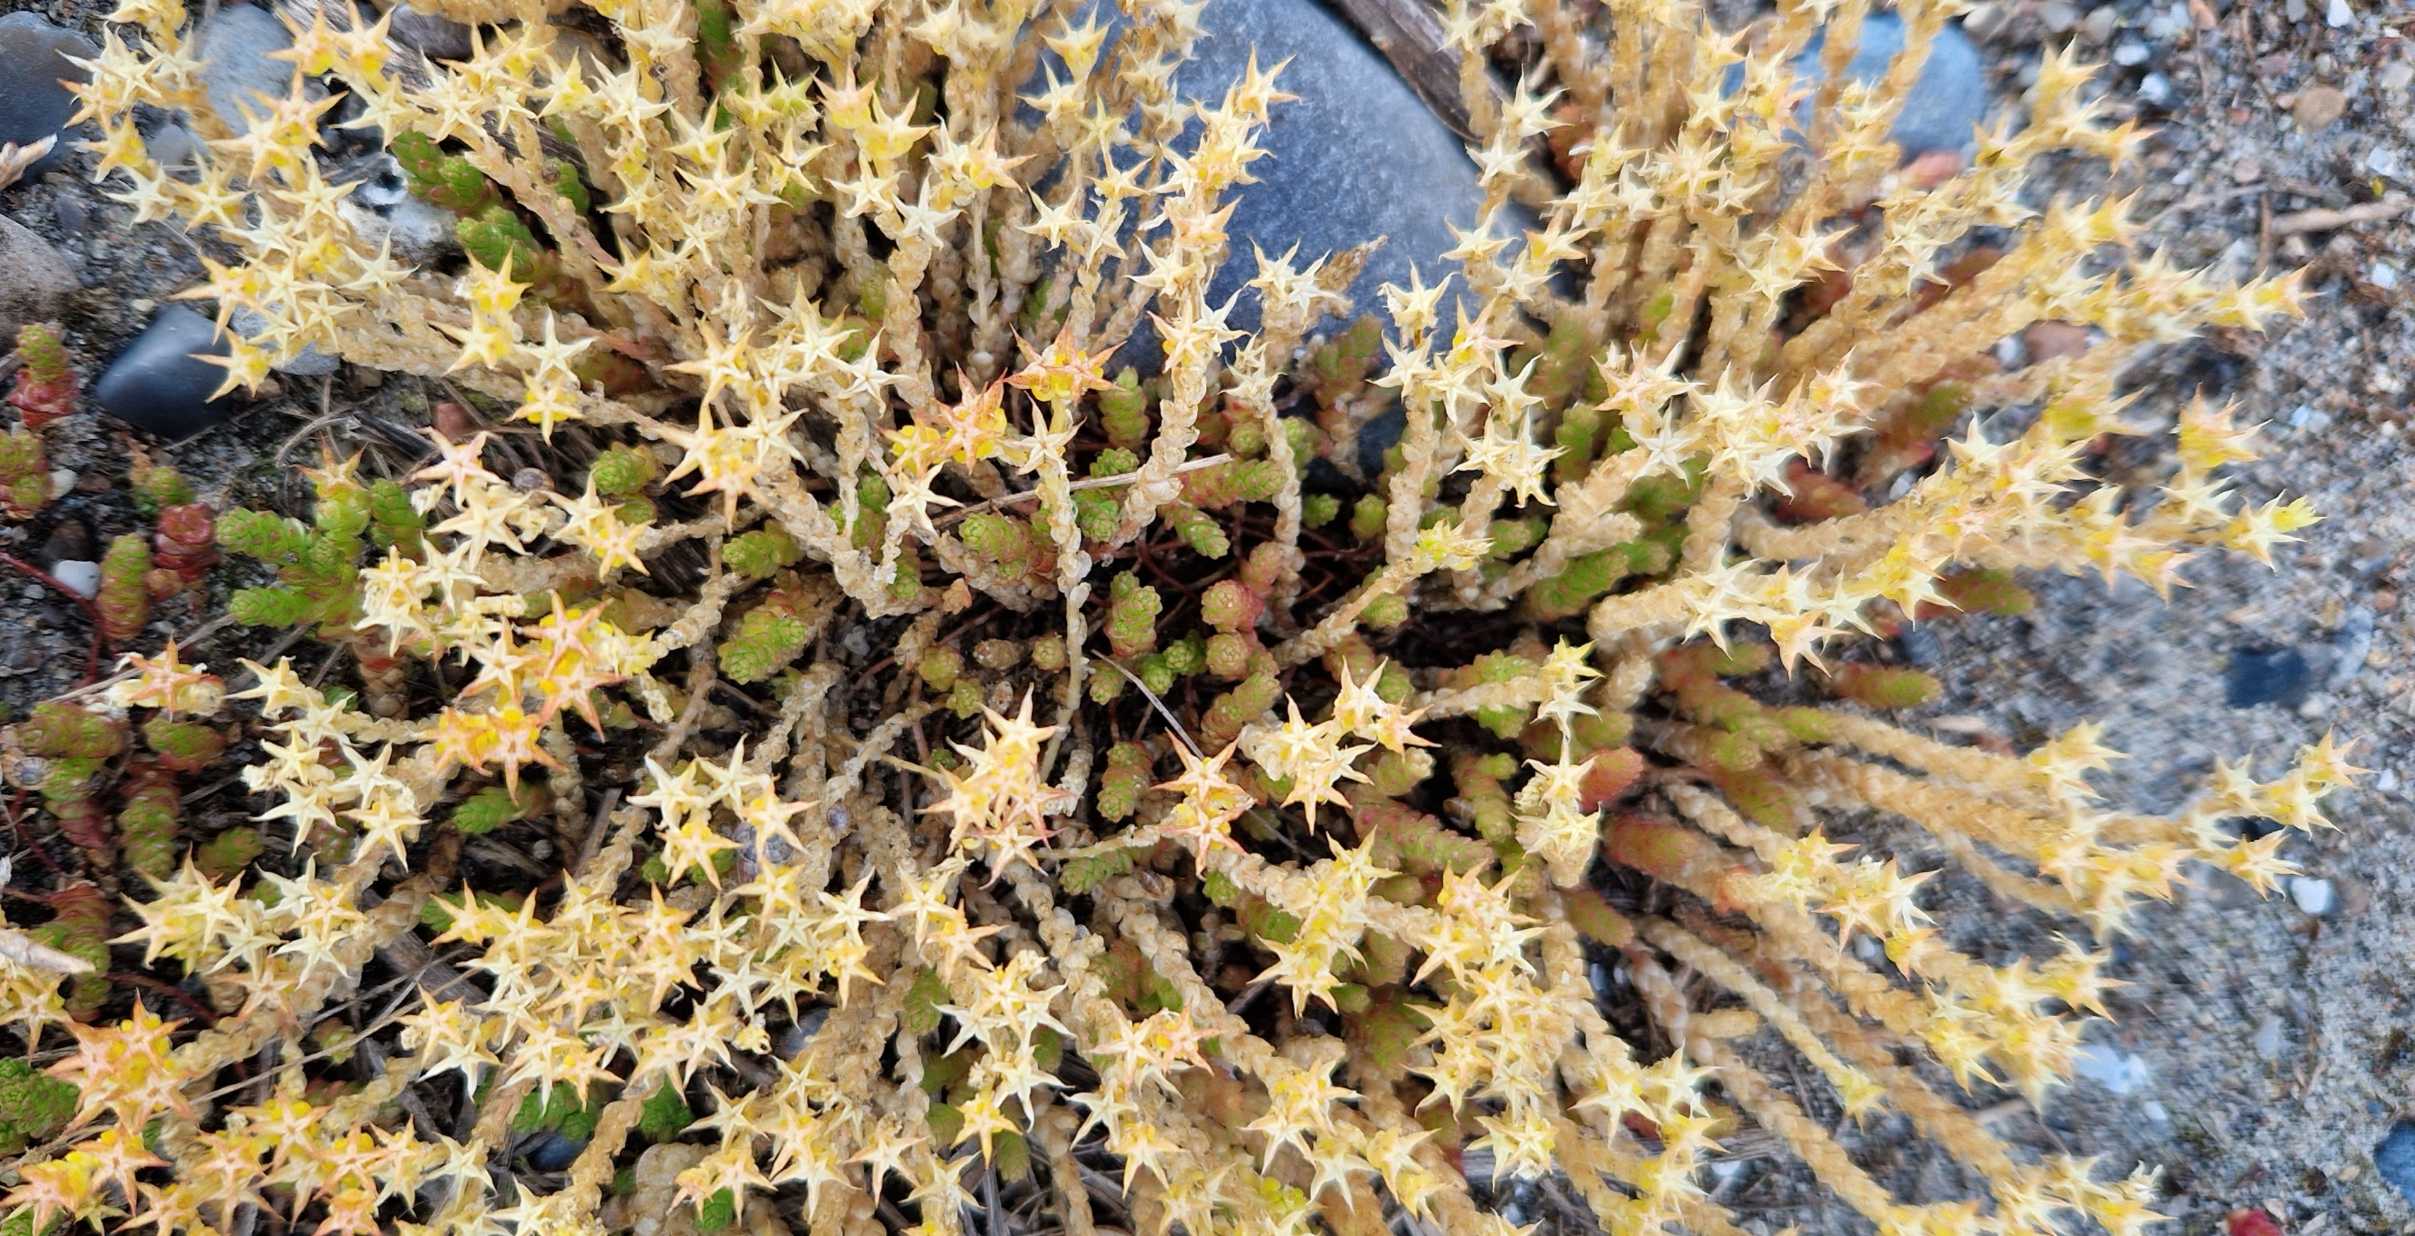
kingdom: Plantae
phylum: Tracheophyta
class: Magnoliopsida
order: Saxifragales
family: Crassulaceae
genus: Sedum
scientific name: Sedum acre
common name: Bidende stenurt
